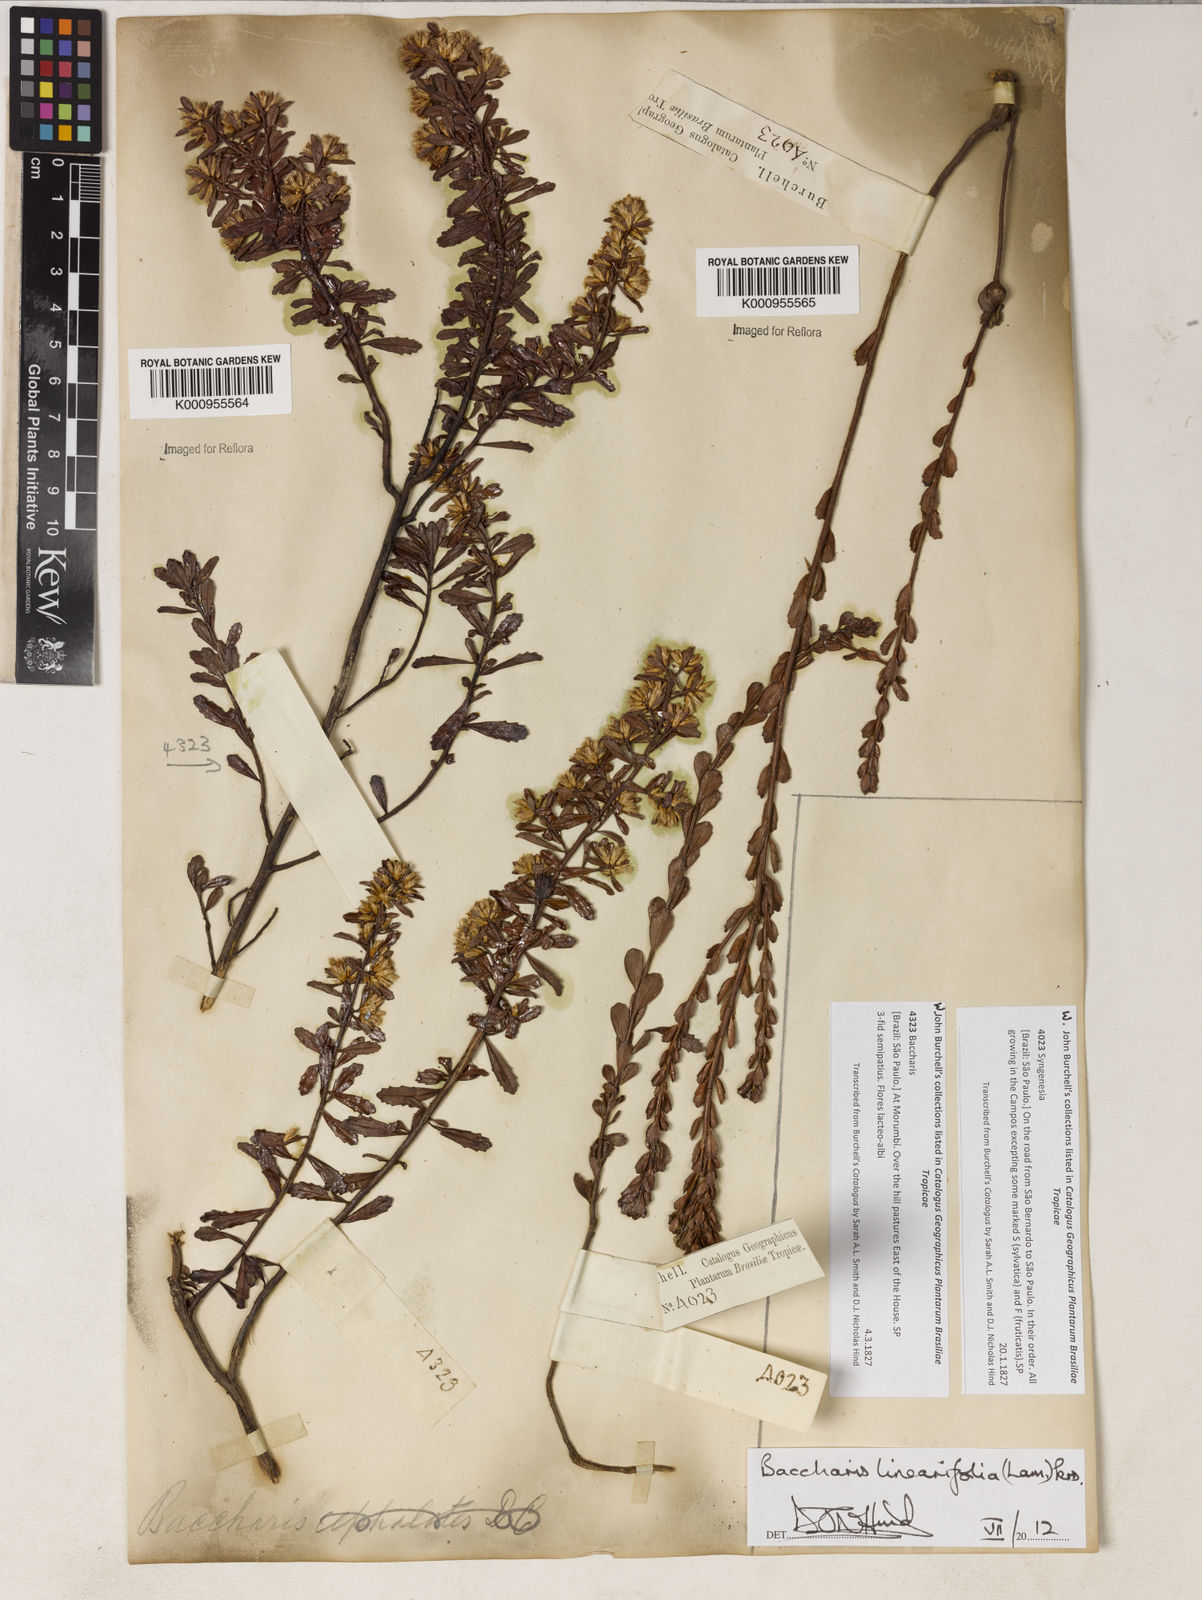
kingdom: Plantae
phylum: Tracheophyta
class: Magnoliopsida
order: Asterales
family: Asteraceae
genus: Baccharis
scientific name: Baccharis linearifolia
